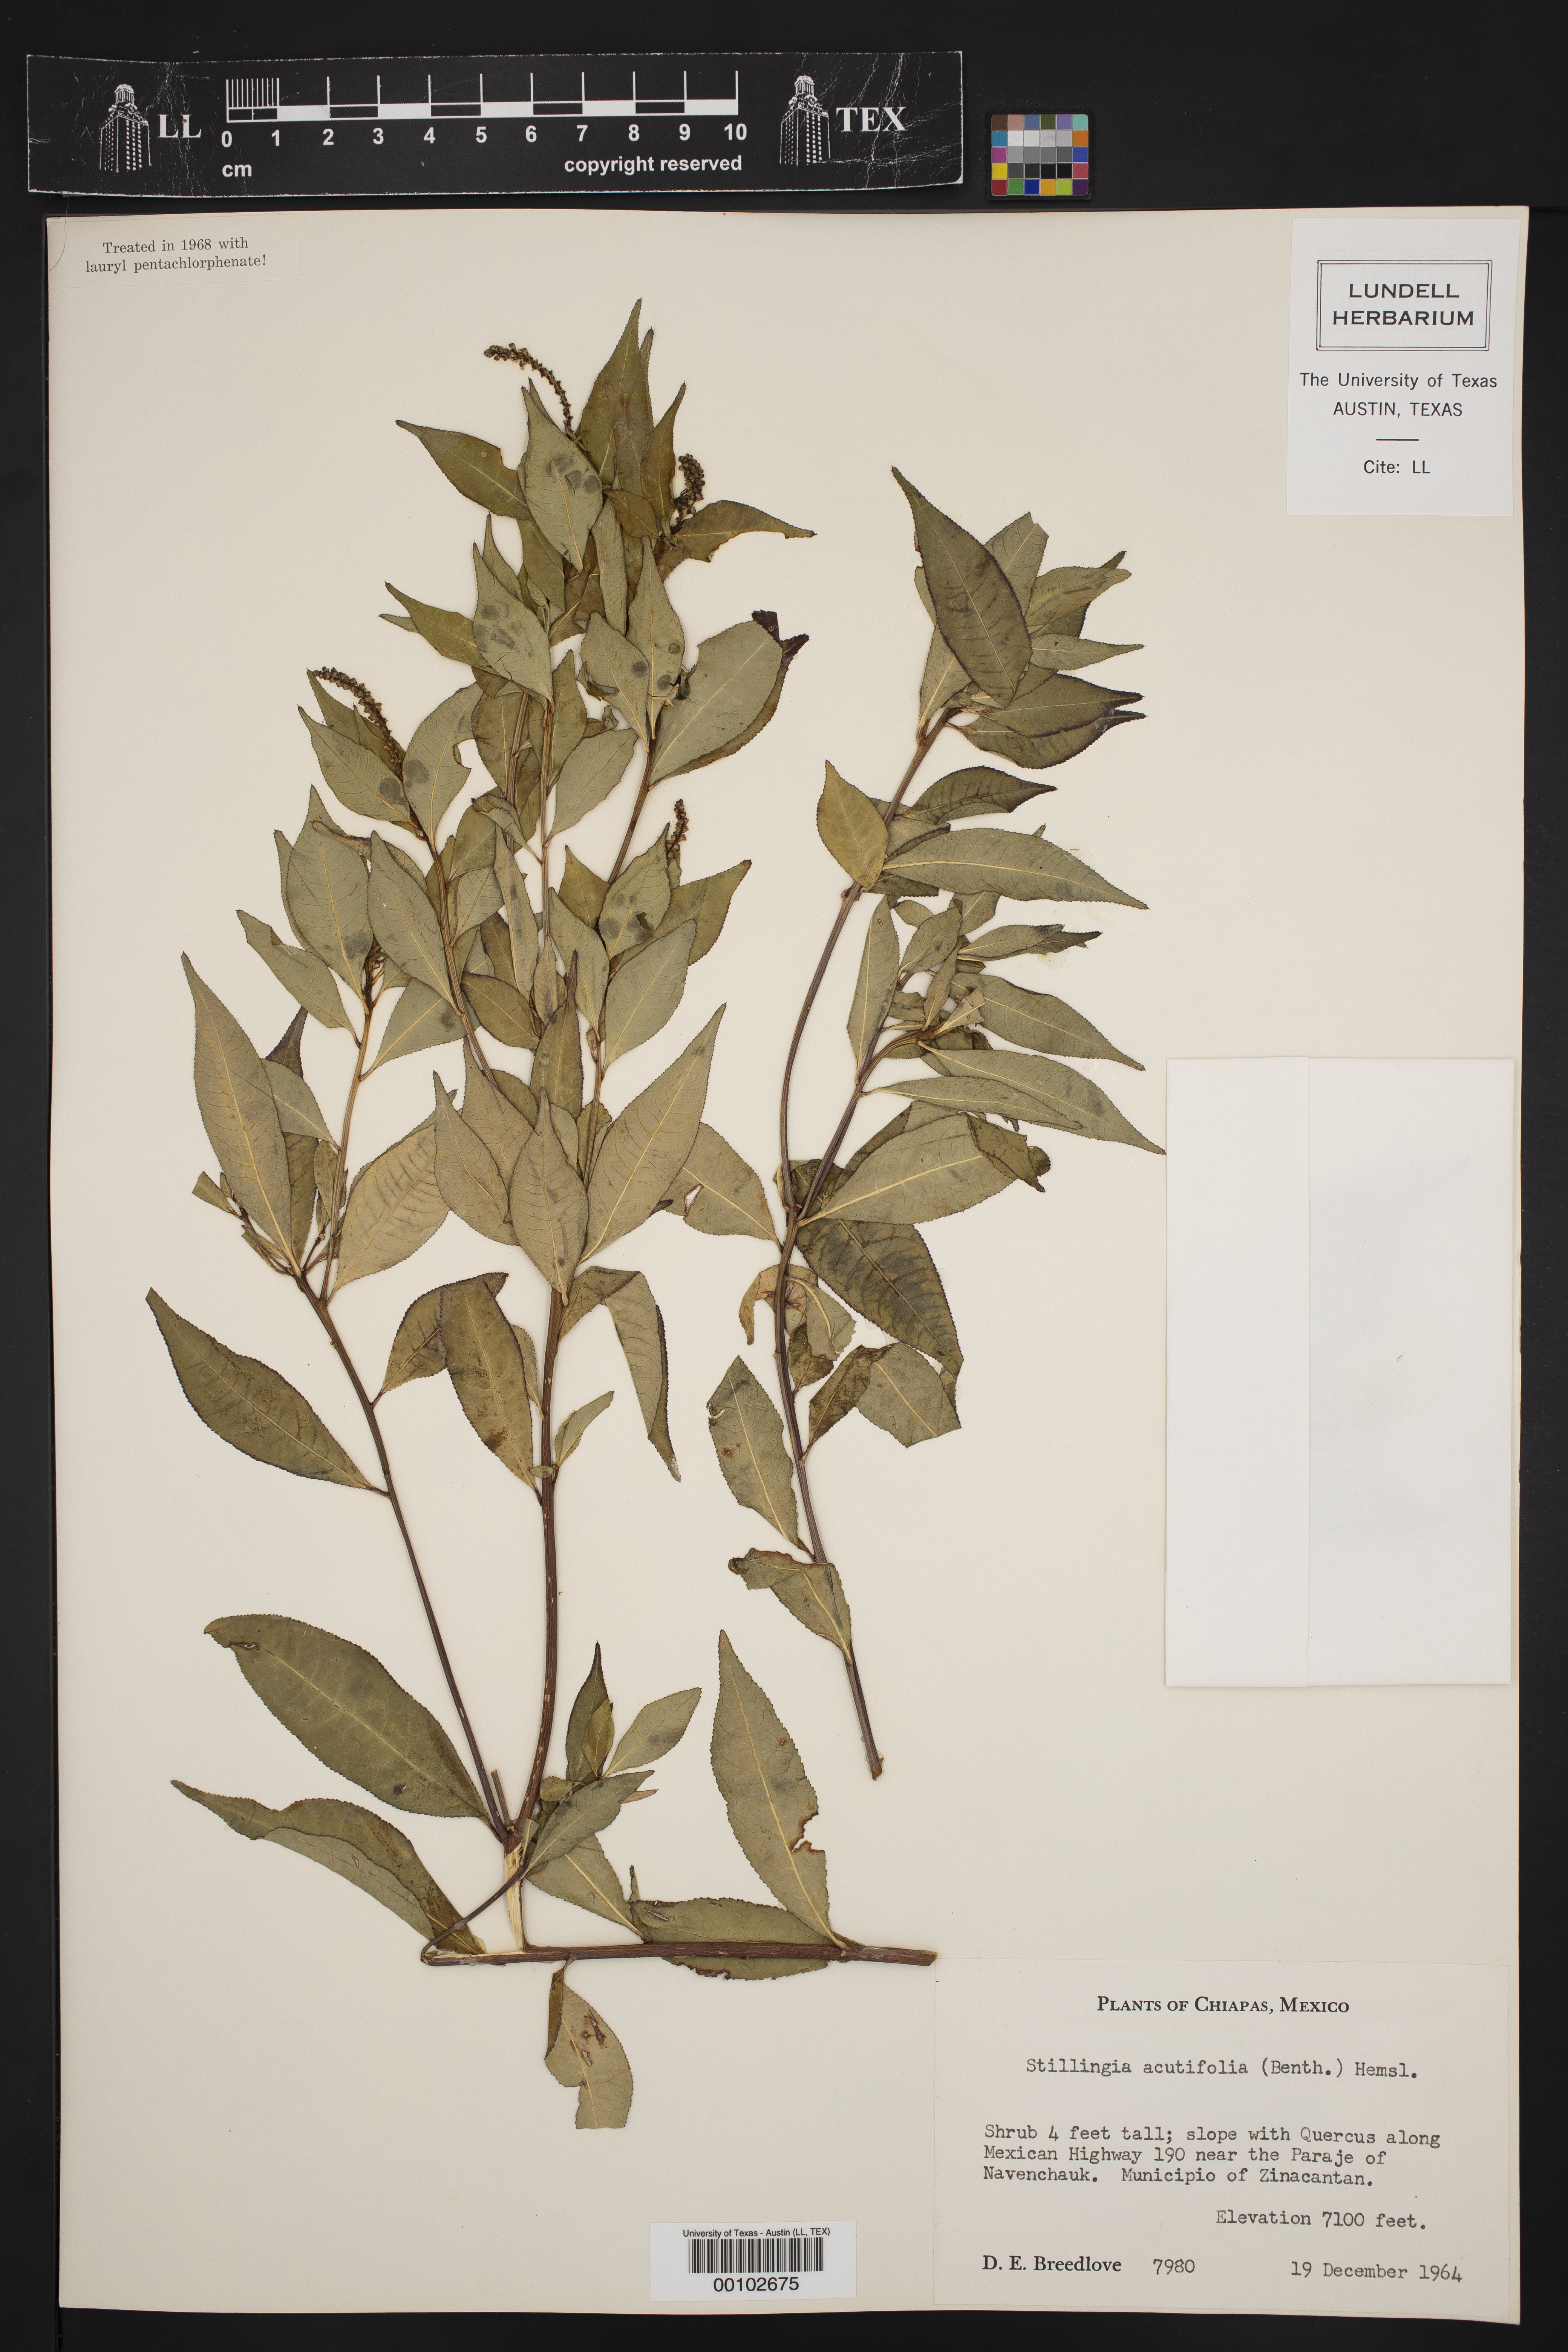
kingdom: Plantae
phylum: Tracheophyta
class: Magnoliopsida
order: Malpighiales
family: Euphorbiaceae
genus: Stillingia
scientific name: Stillingia acutifolia
